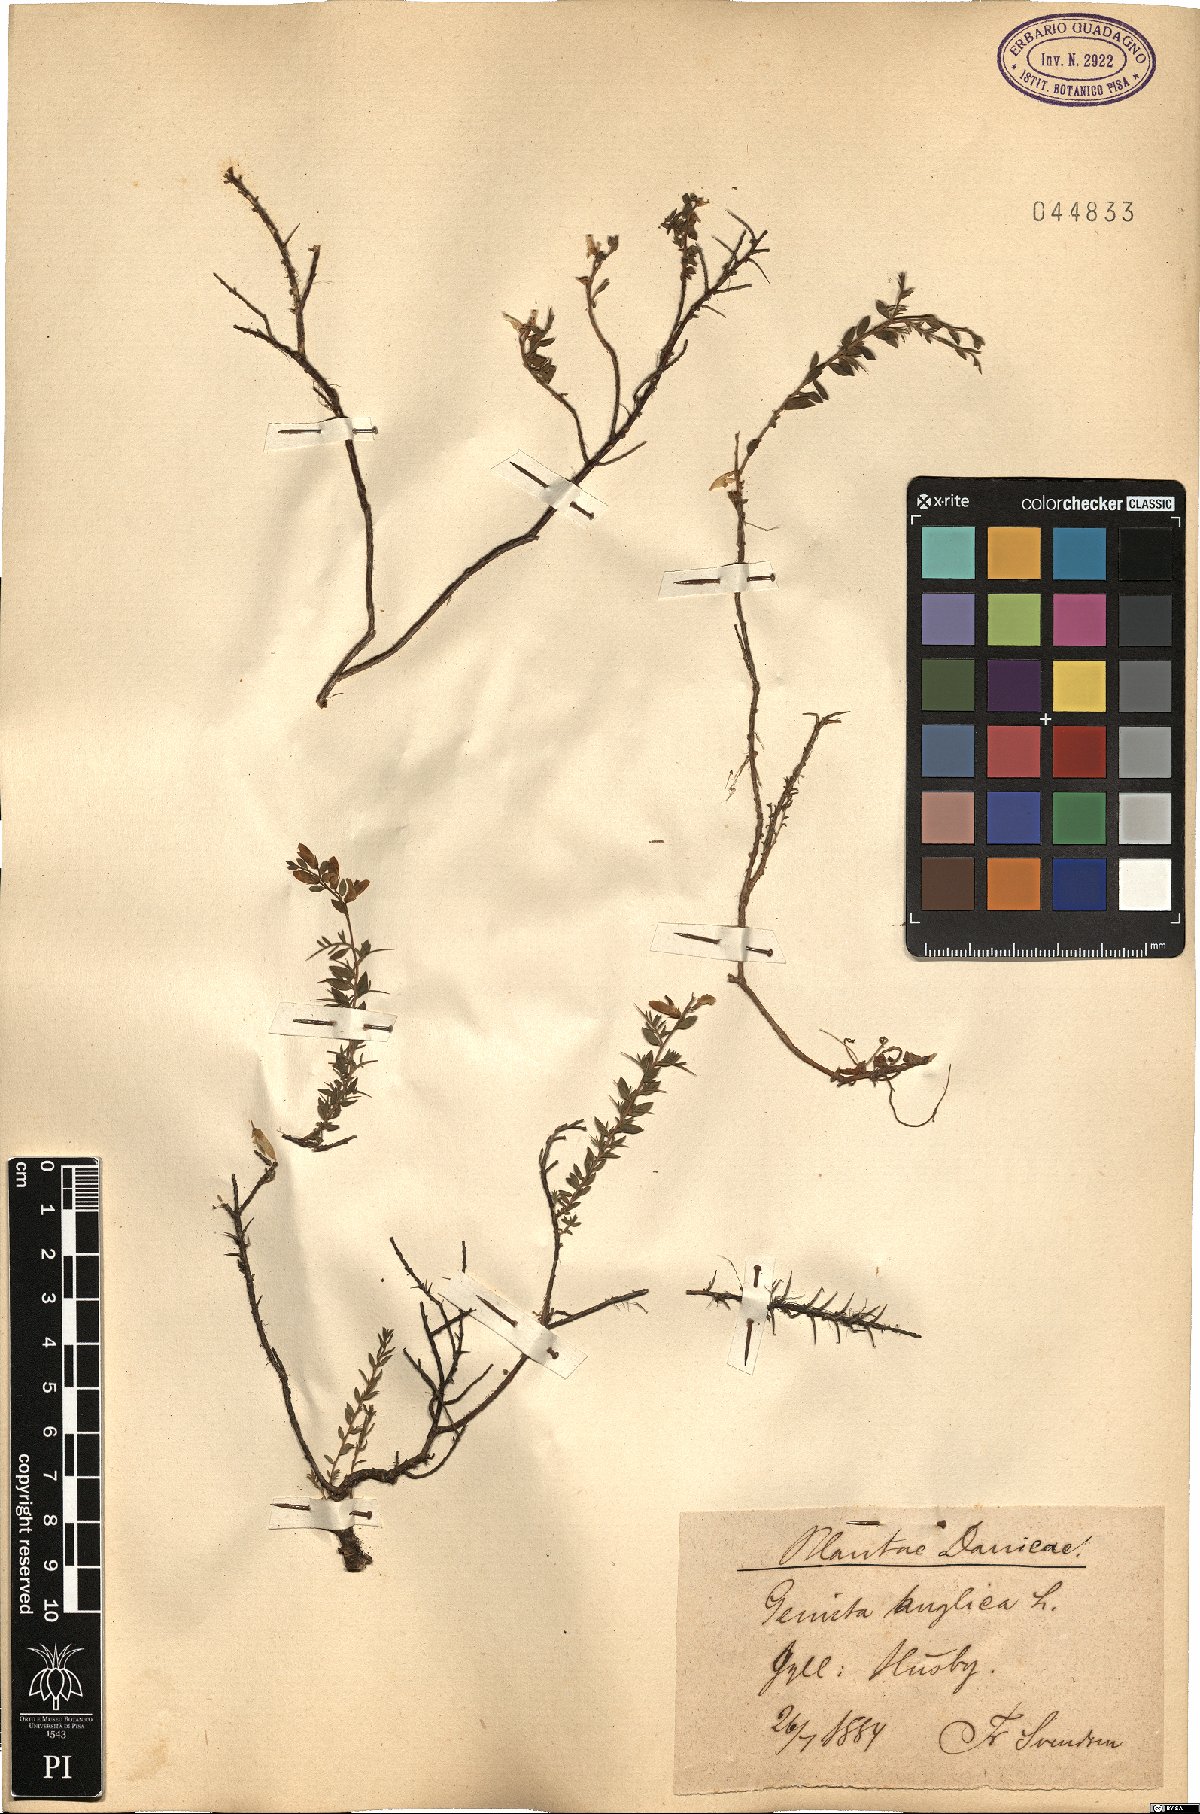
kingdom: Plantae
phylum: Tracheophyta
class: Magnoliopsida
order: Fabales
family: Fabaceae
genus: Genista
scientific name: Genista anglica
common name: Petty whin
